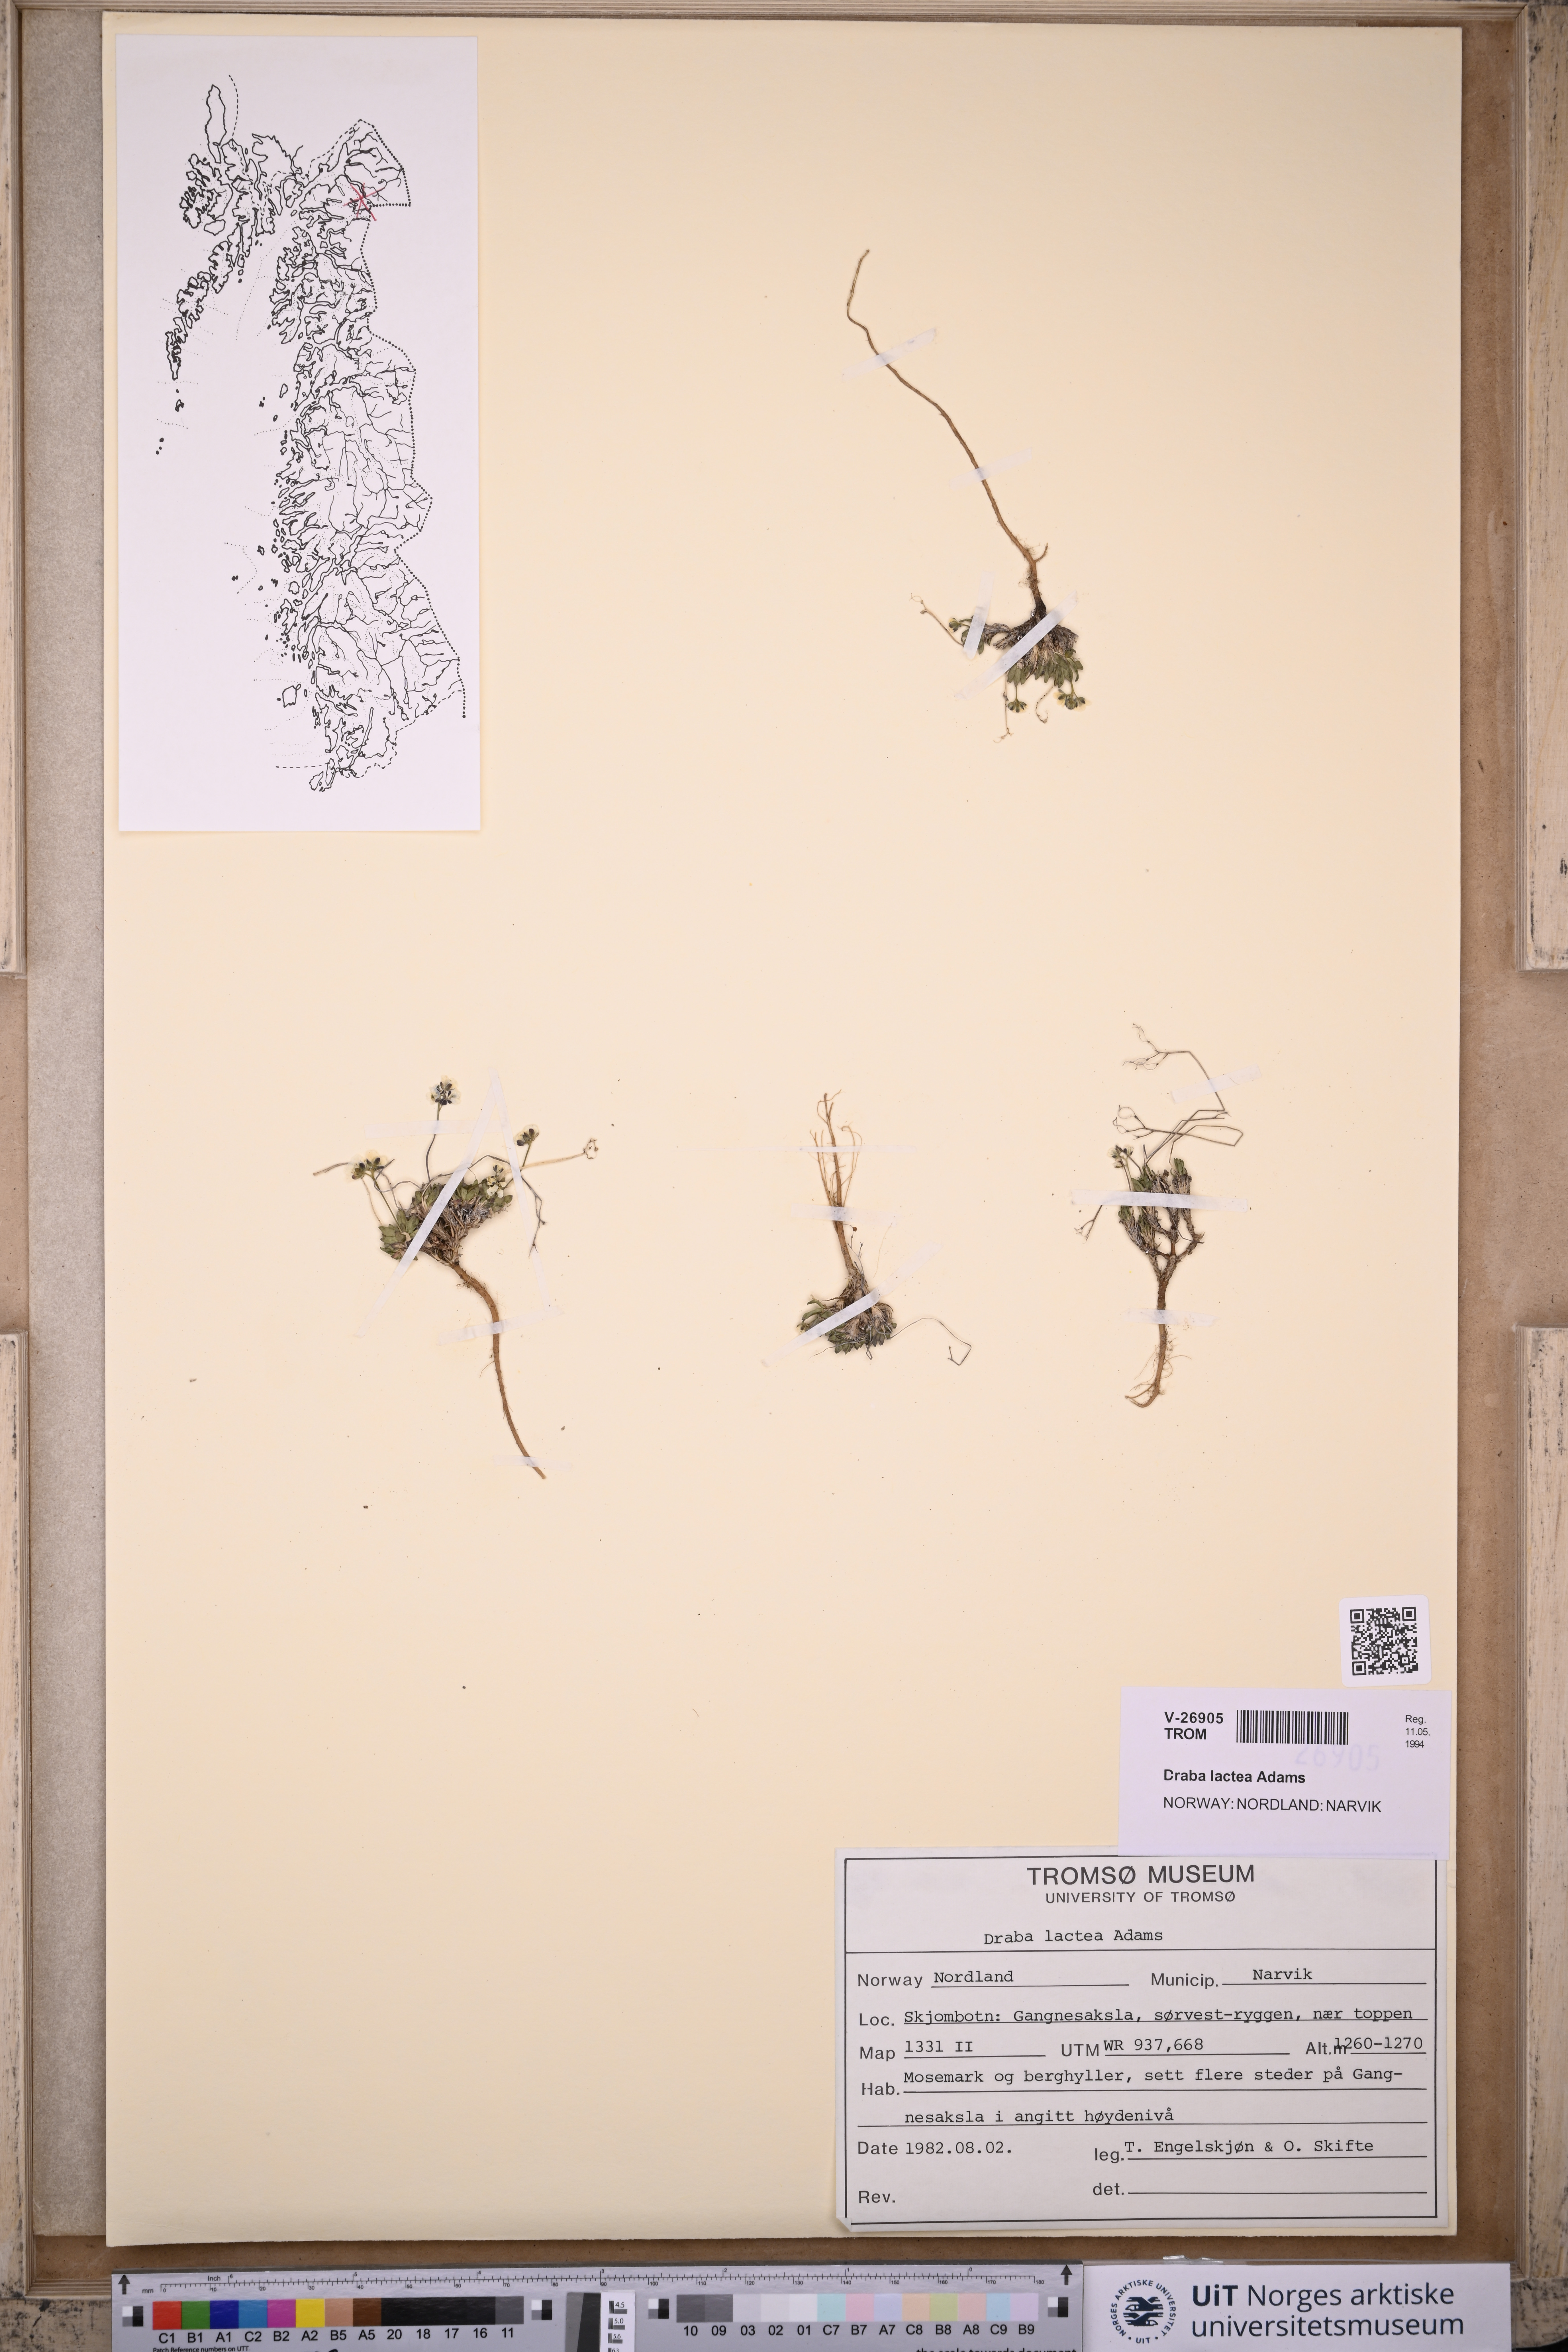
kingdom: Plantae
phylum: Tracheophyta
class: Magnoliopsida
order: Brassicales
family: Brassicaceae
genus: Draba
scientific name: Draba lactea
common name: Milky draba
